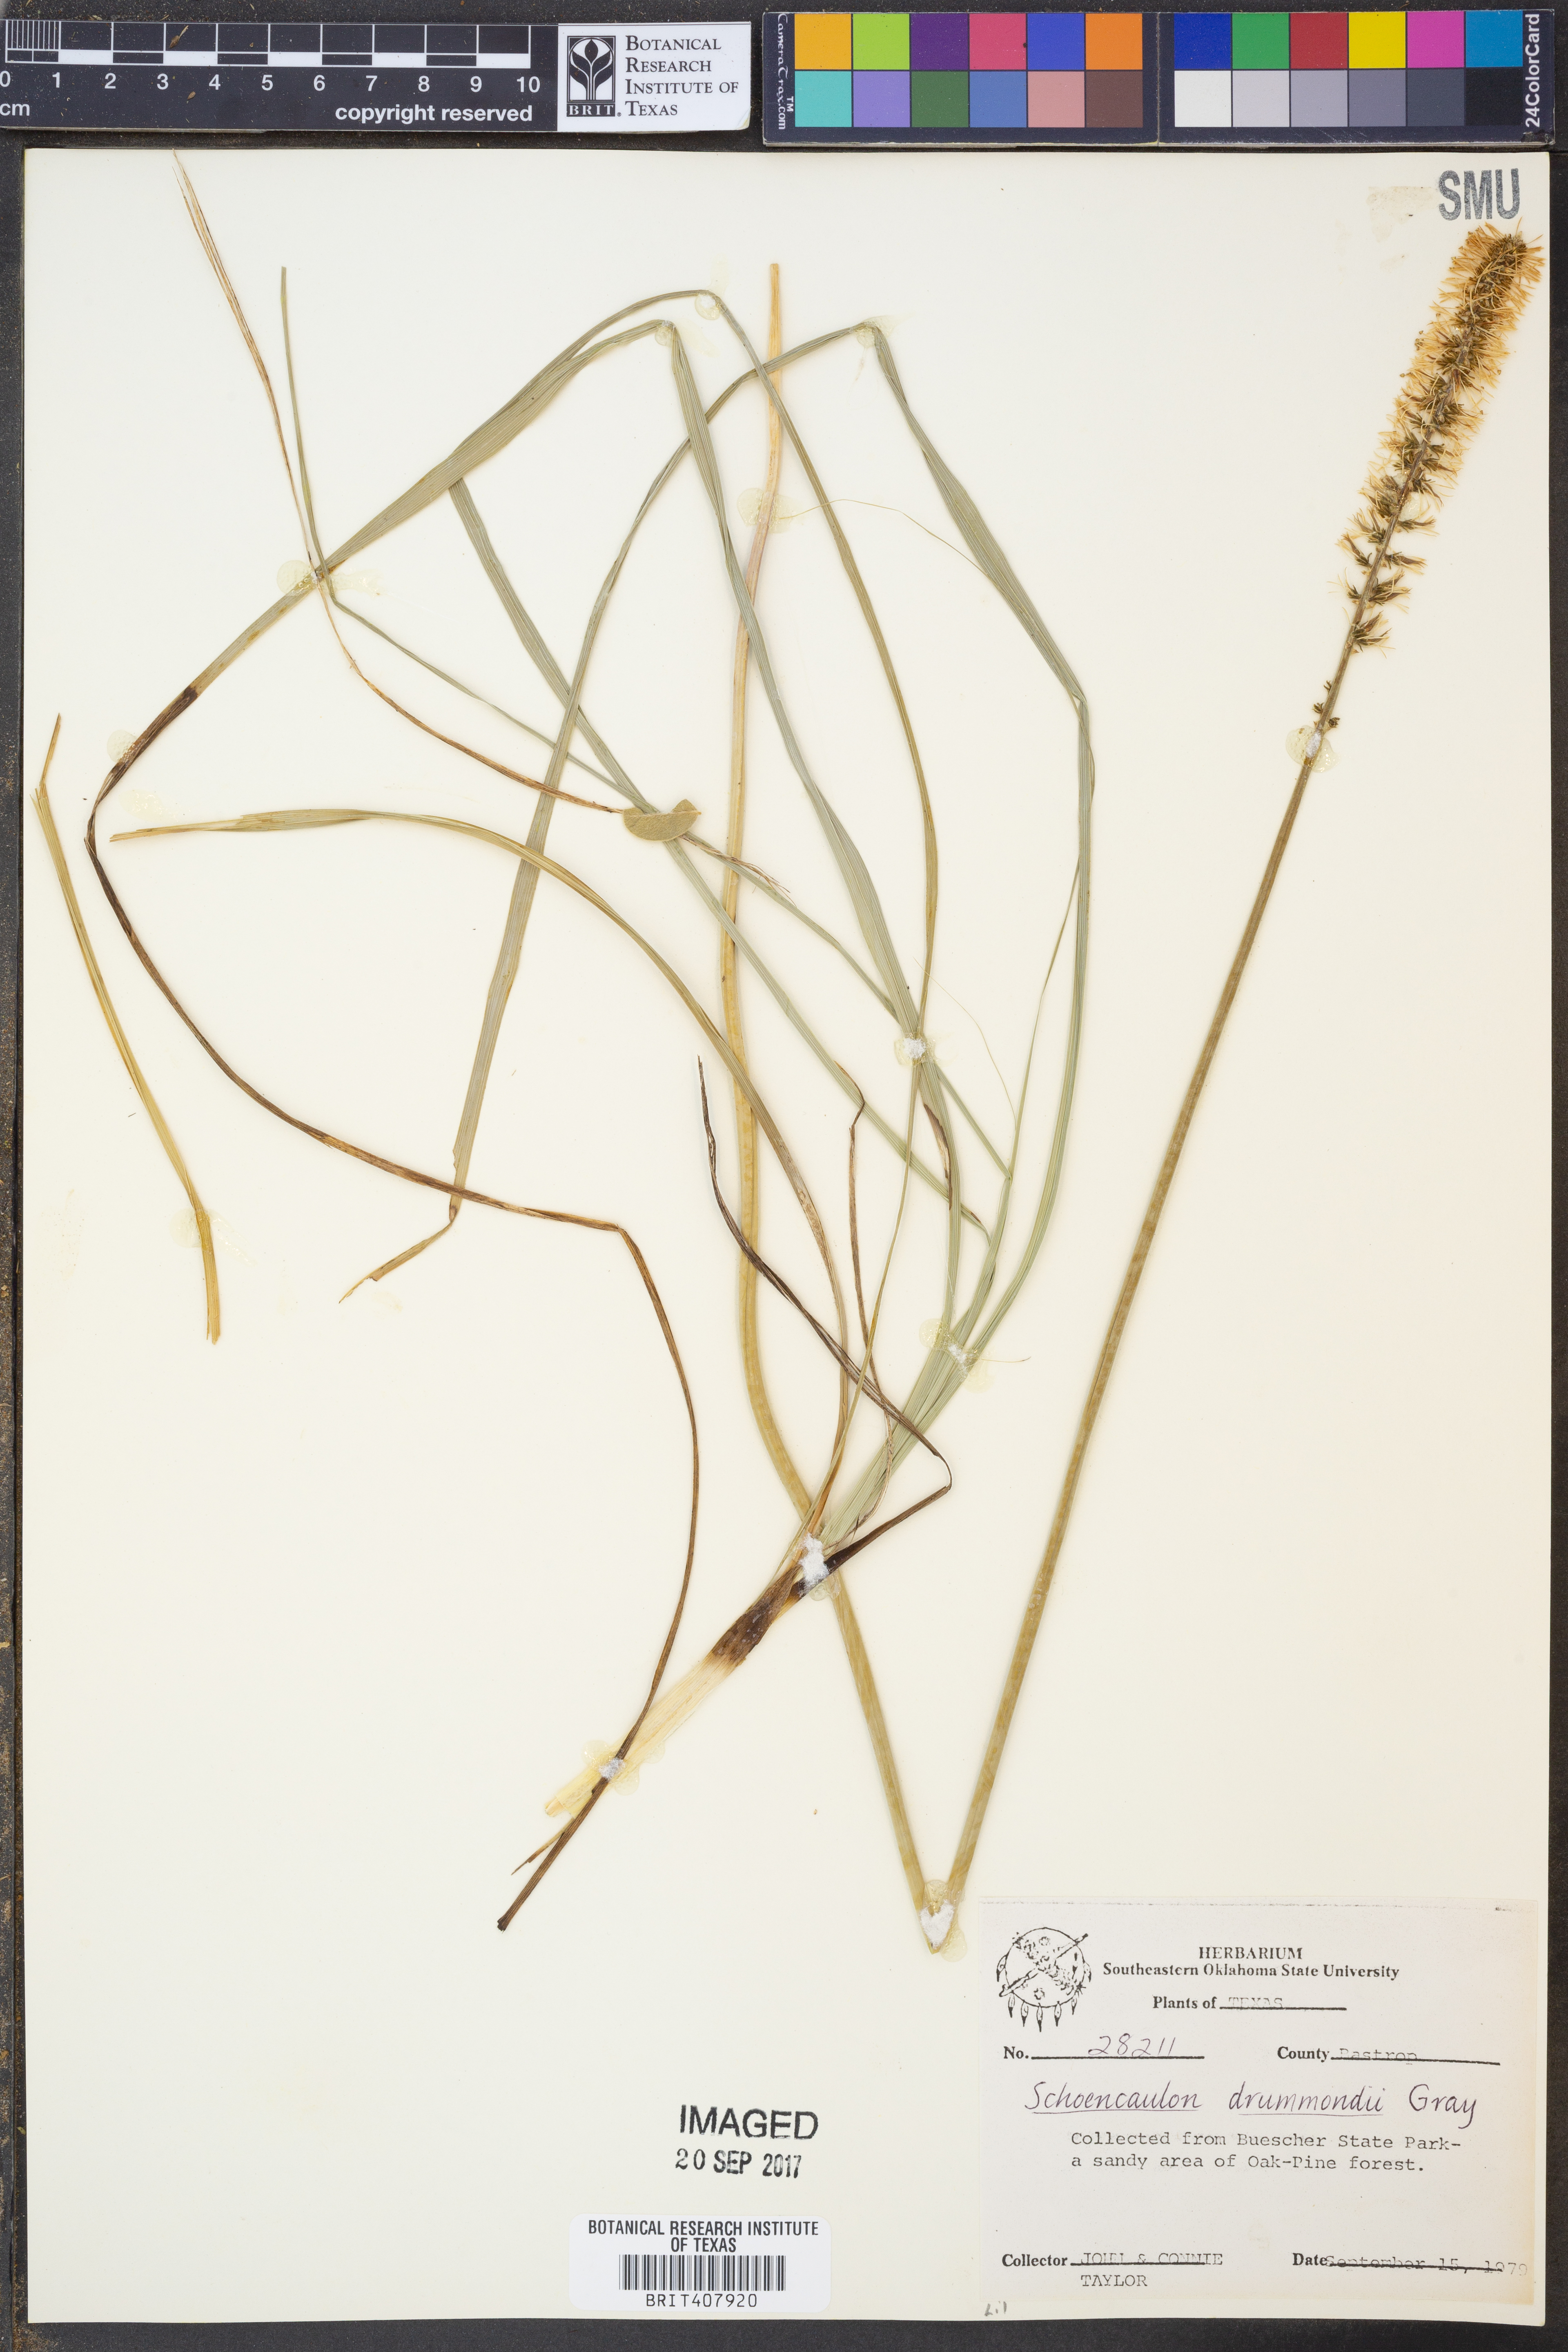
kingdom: Plantae
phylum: Tracheophyta
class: Liliopsida
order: Liliales
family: Melanthiaceae
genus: Schoenocaulon
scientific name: Schoenocaulon ghiesbreghtii
